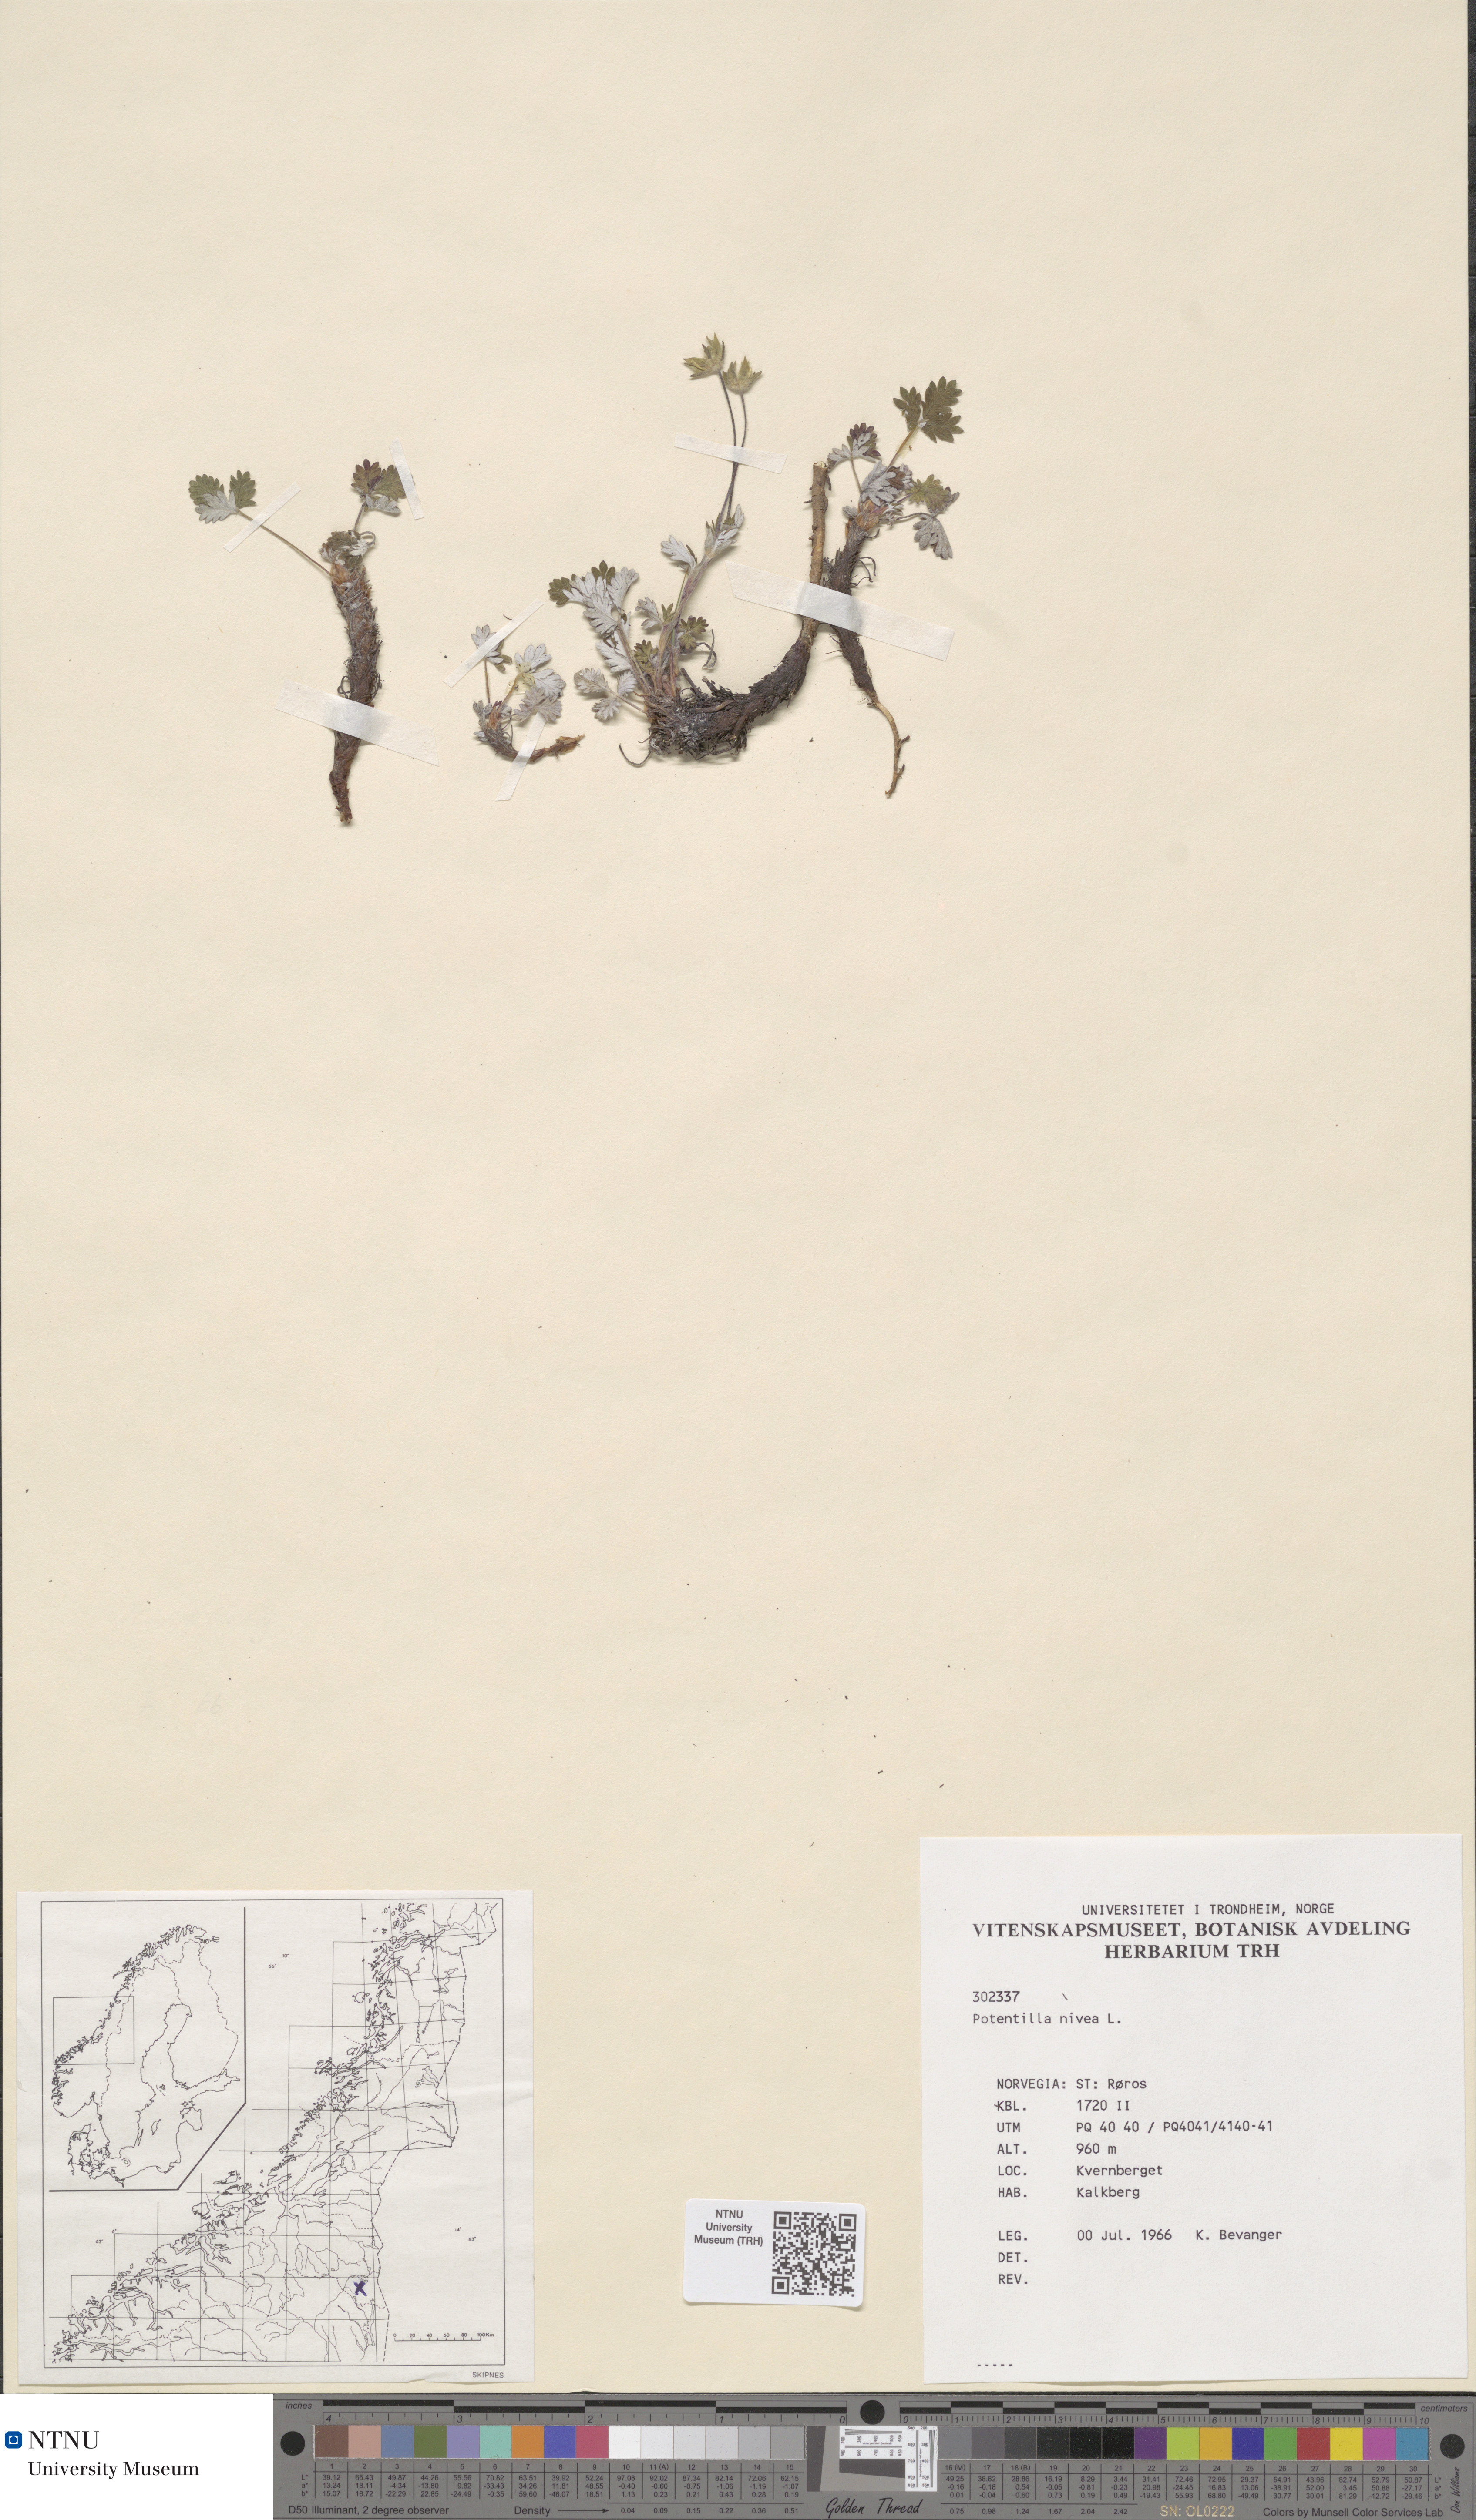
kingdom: Plantae
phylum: Tracheophyta
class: Magnoliopsida
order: Rosales
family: Rosaceae
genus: Potentilla
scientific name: Potentilla nivea
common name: Snow cinquefoil
